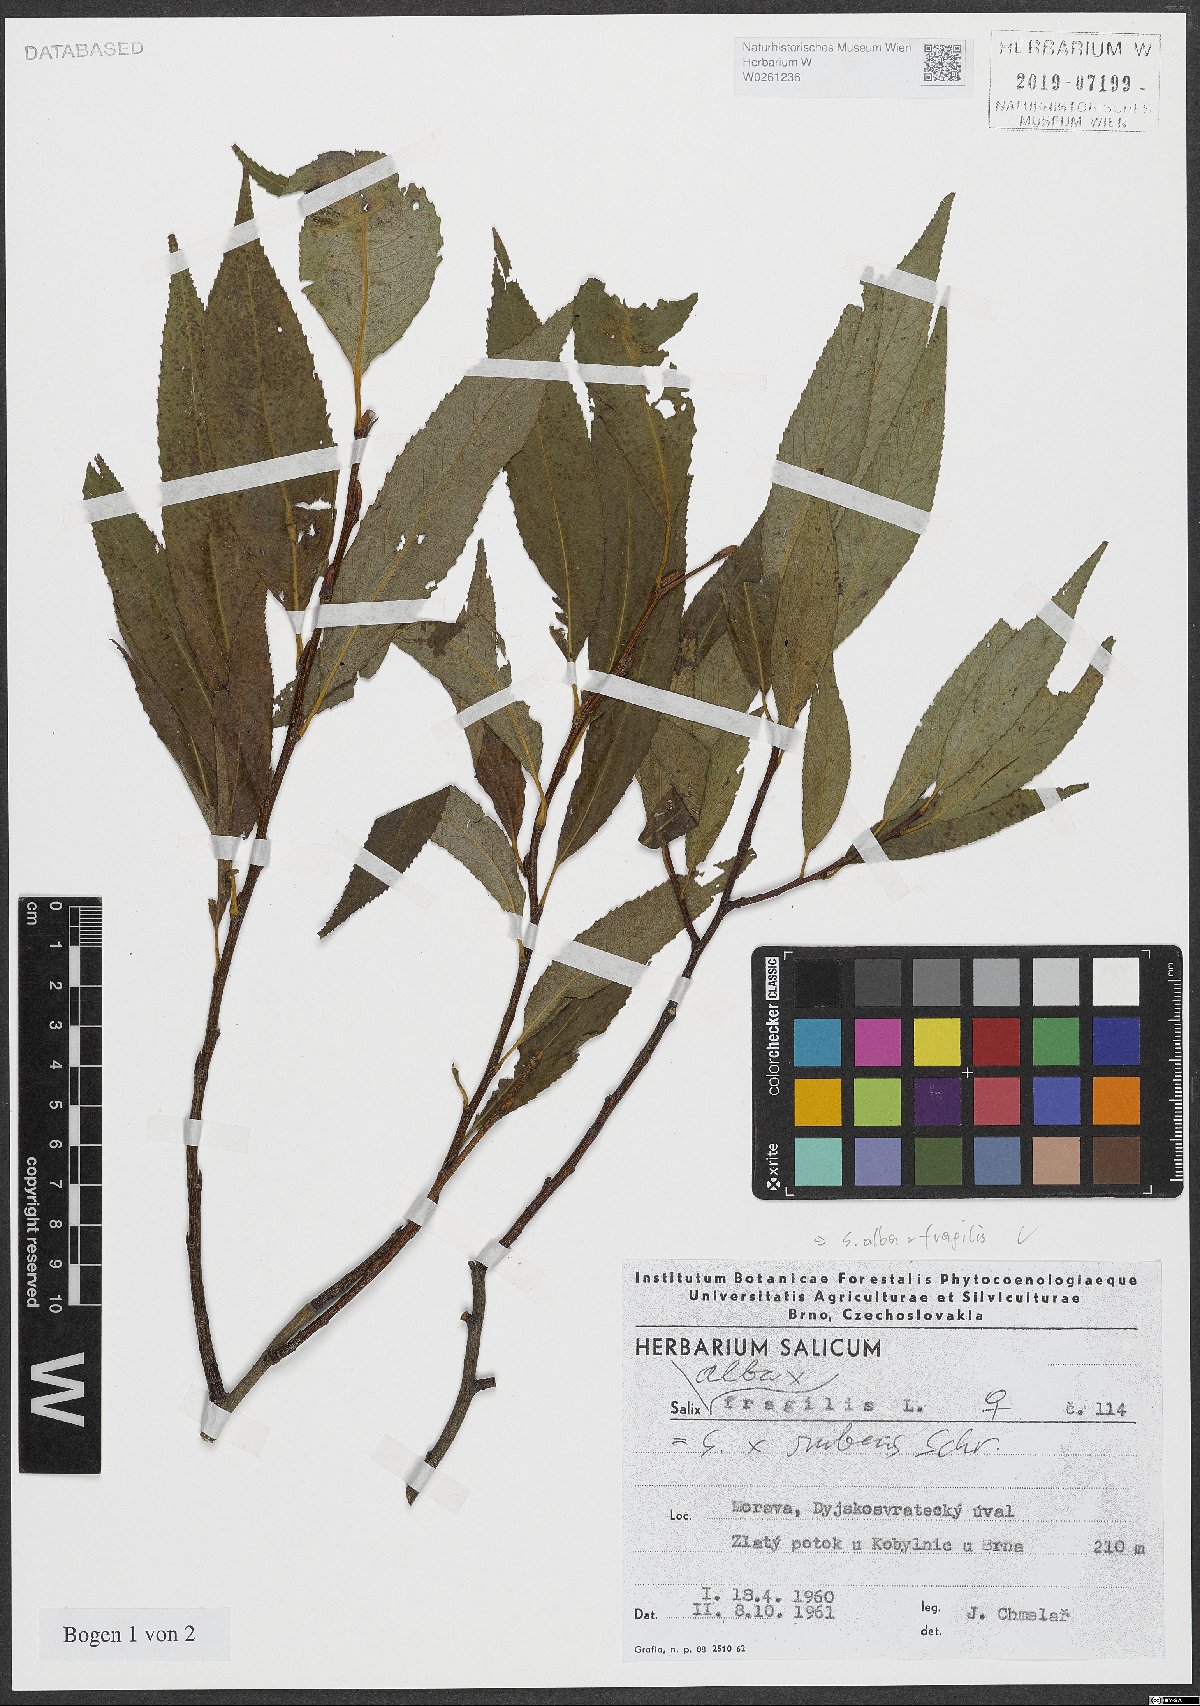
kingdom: Plantae
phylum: Tracheophyta
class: Magnoliopsida
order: Malpighiales
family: Salicaceae
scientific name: Salicaceae
